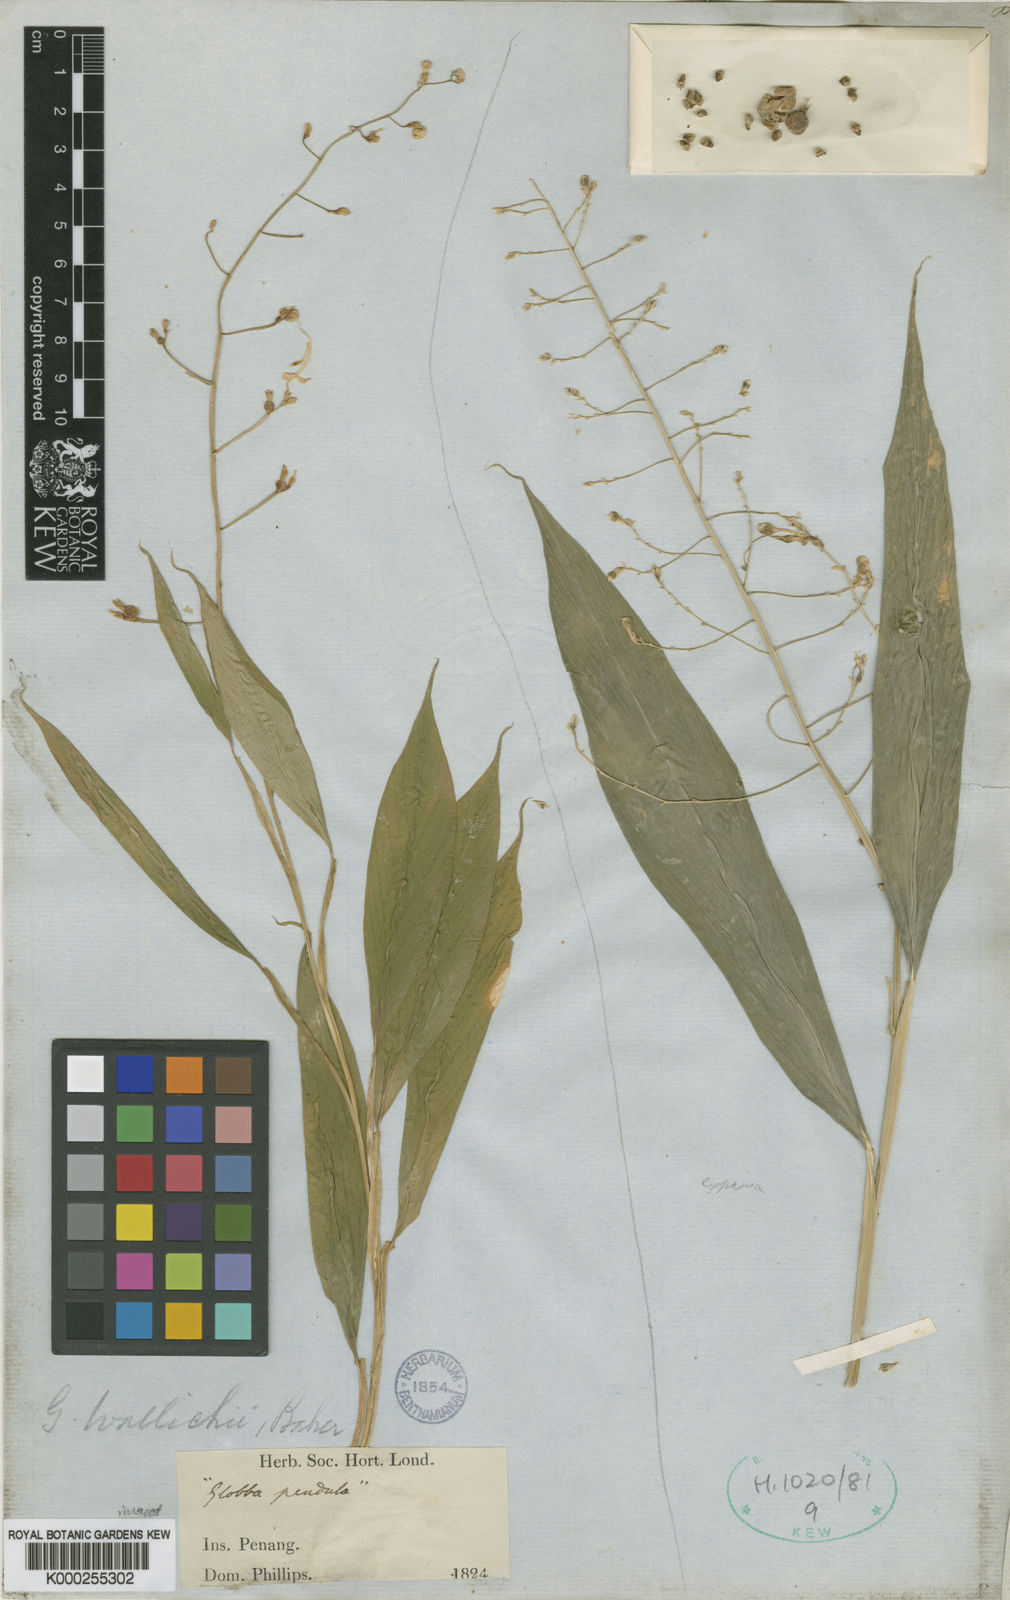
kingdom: Plantae
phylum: Tracheophyta
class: Liliopsida
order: Zingiberales
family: Zingiberaceae
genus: Globba
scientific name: Globba pendula
